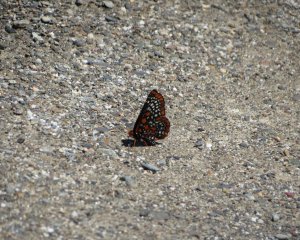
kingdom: Animalia
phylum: Arthropoda
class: Insecta
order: Lepidoptera
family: Nymphalidae
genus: Euphydryas
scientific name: Euphydryas phaeton
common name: Baltimore Checkerspot
